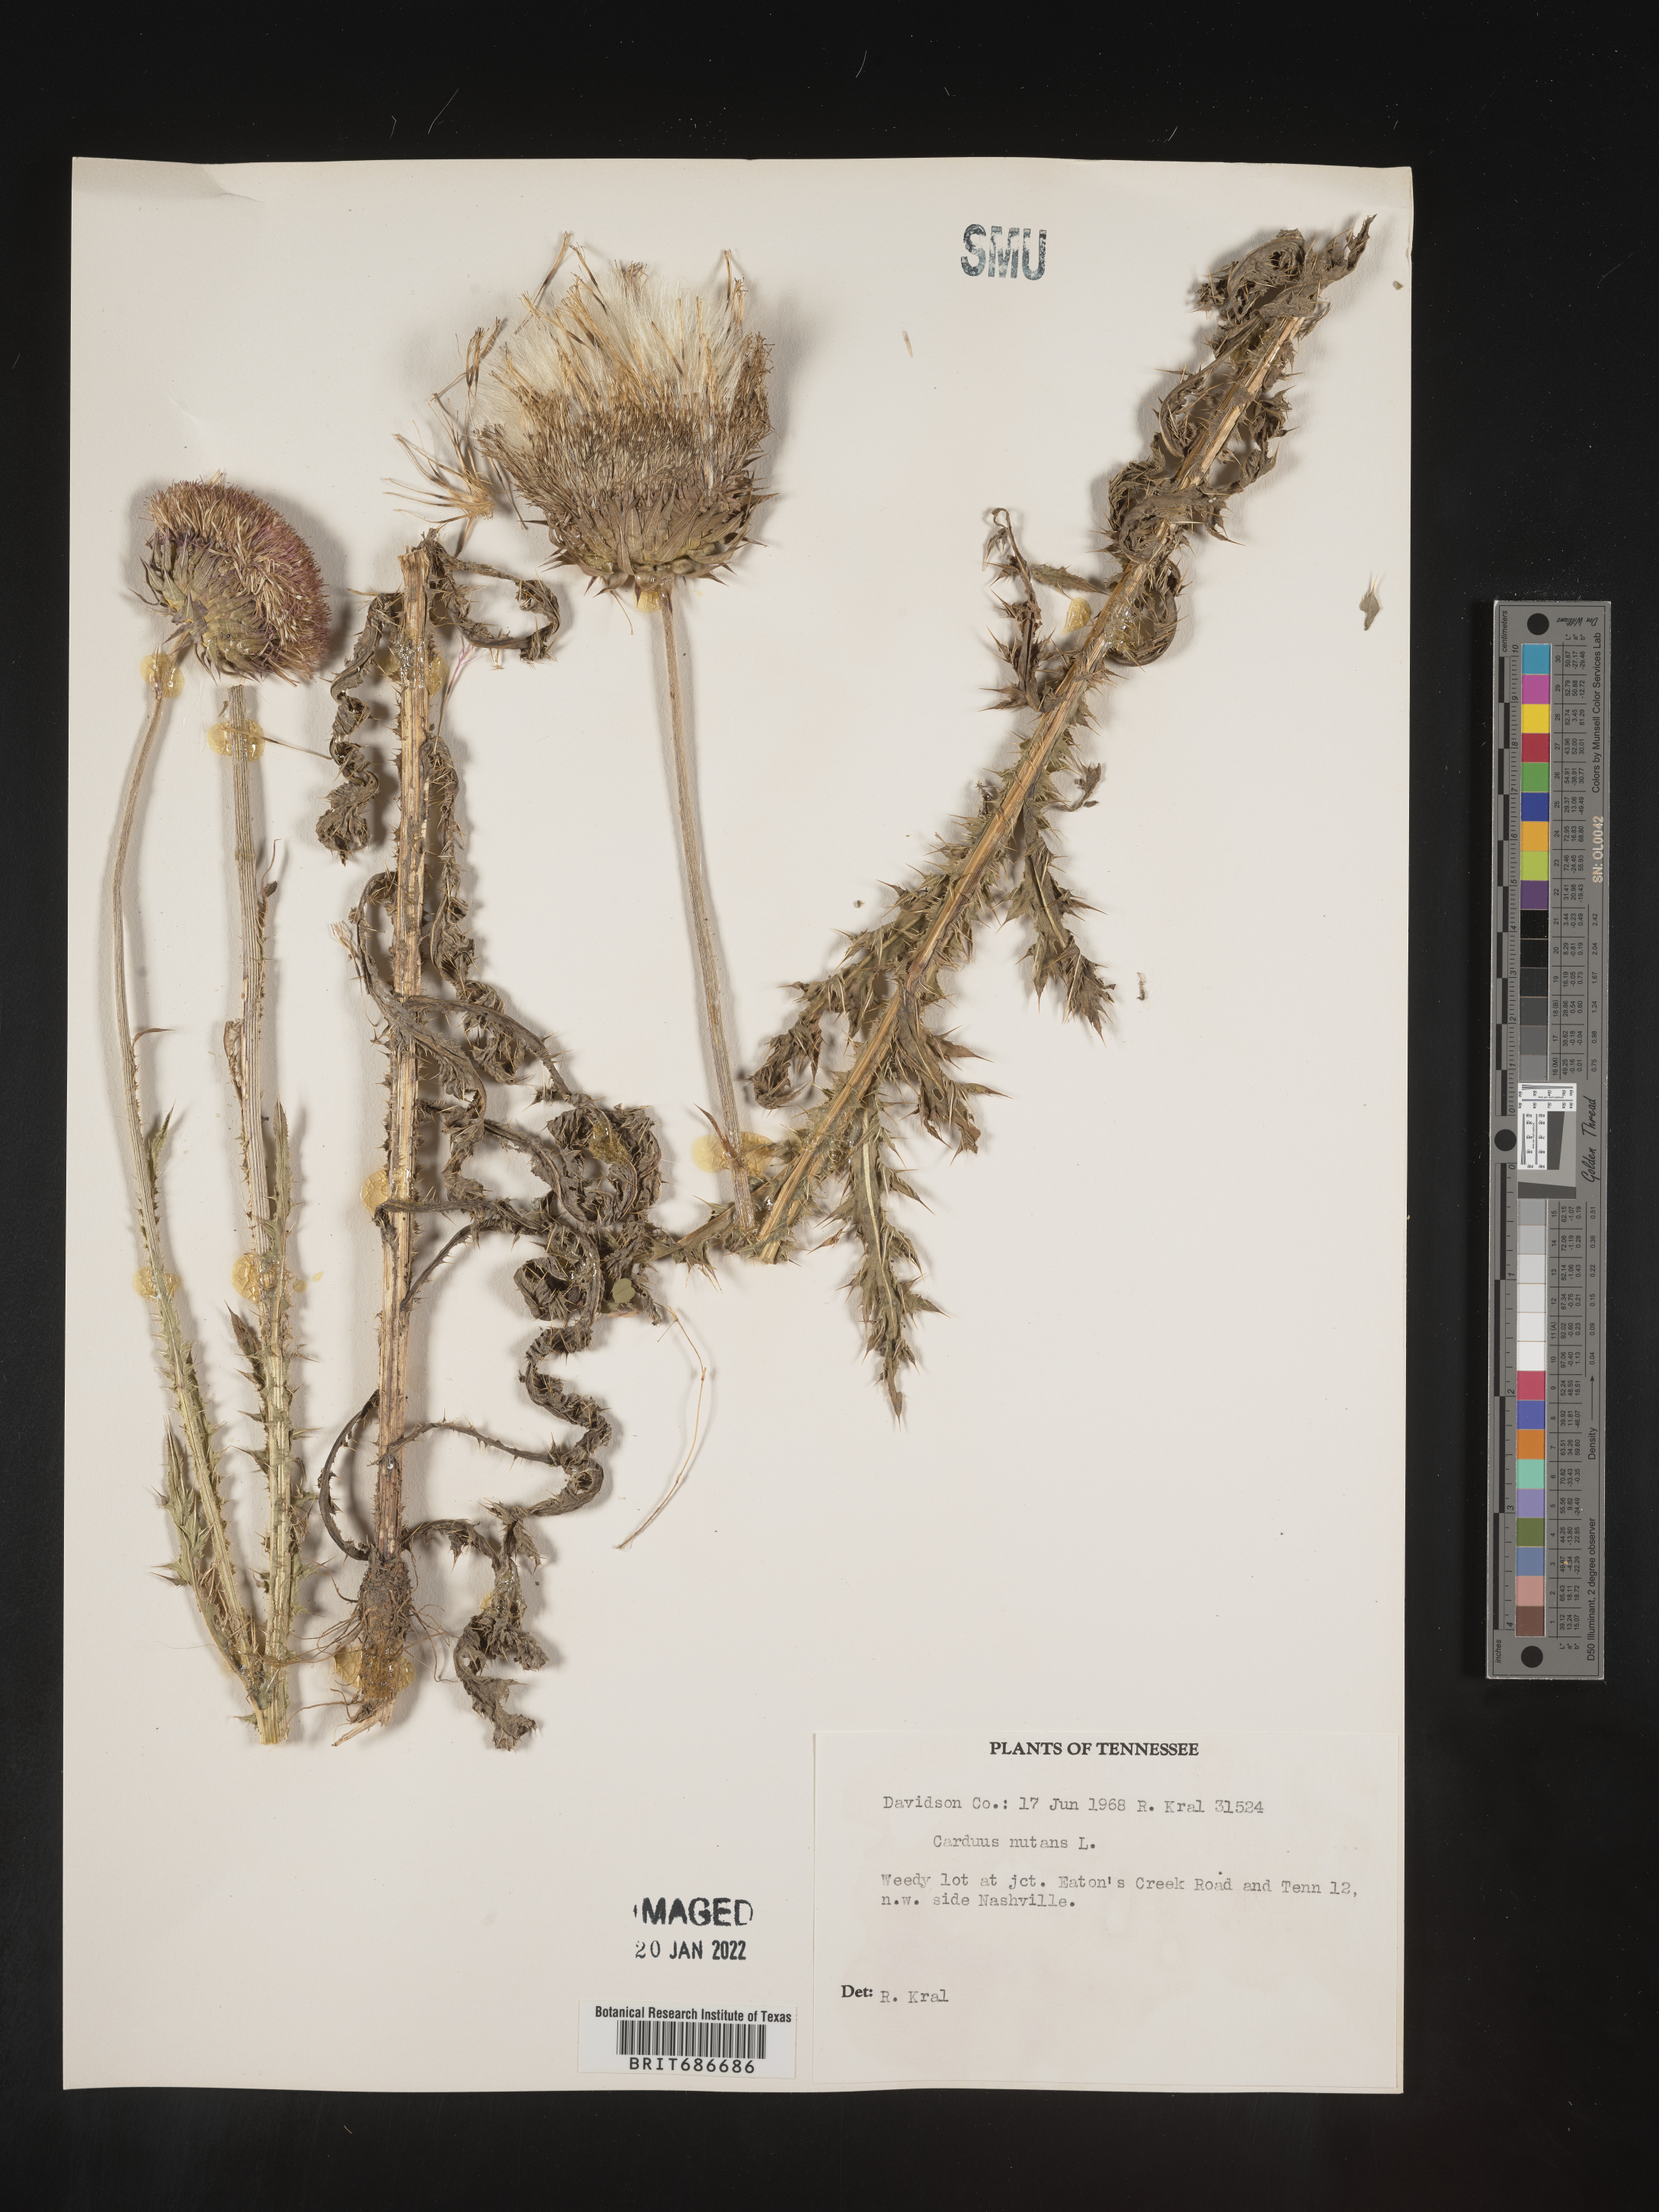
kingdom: Plantae
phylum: Tracheophyta
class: Magnoliopsida
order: Asterales
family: Asteraceae
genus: Carduus
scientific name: Carduus nutans
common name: Musk thistle
